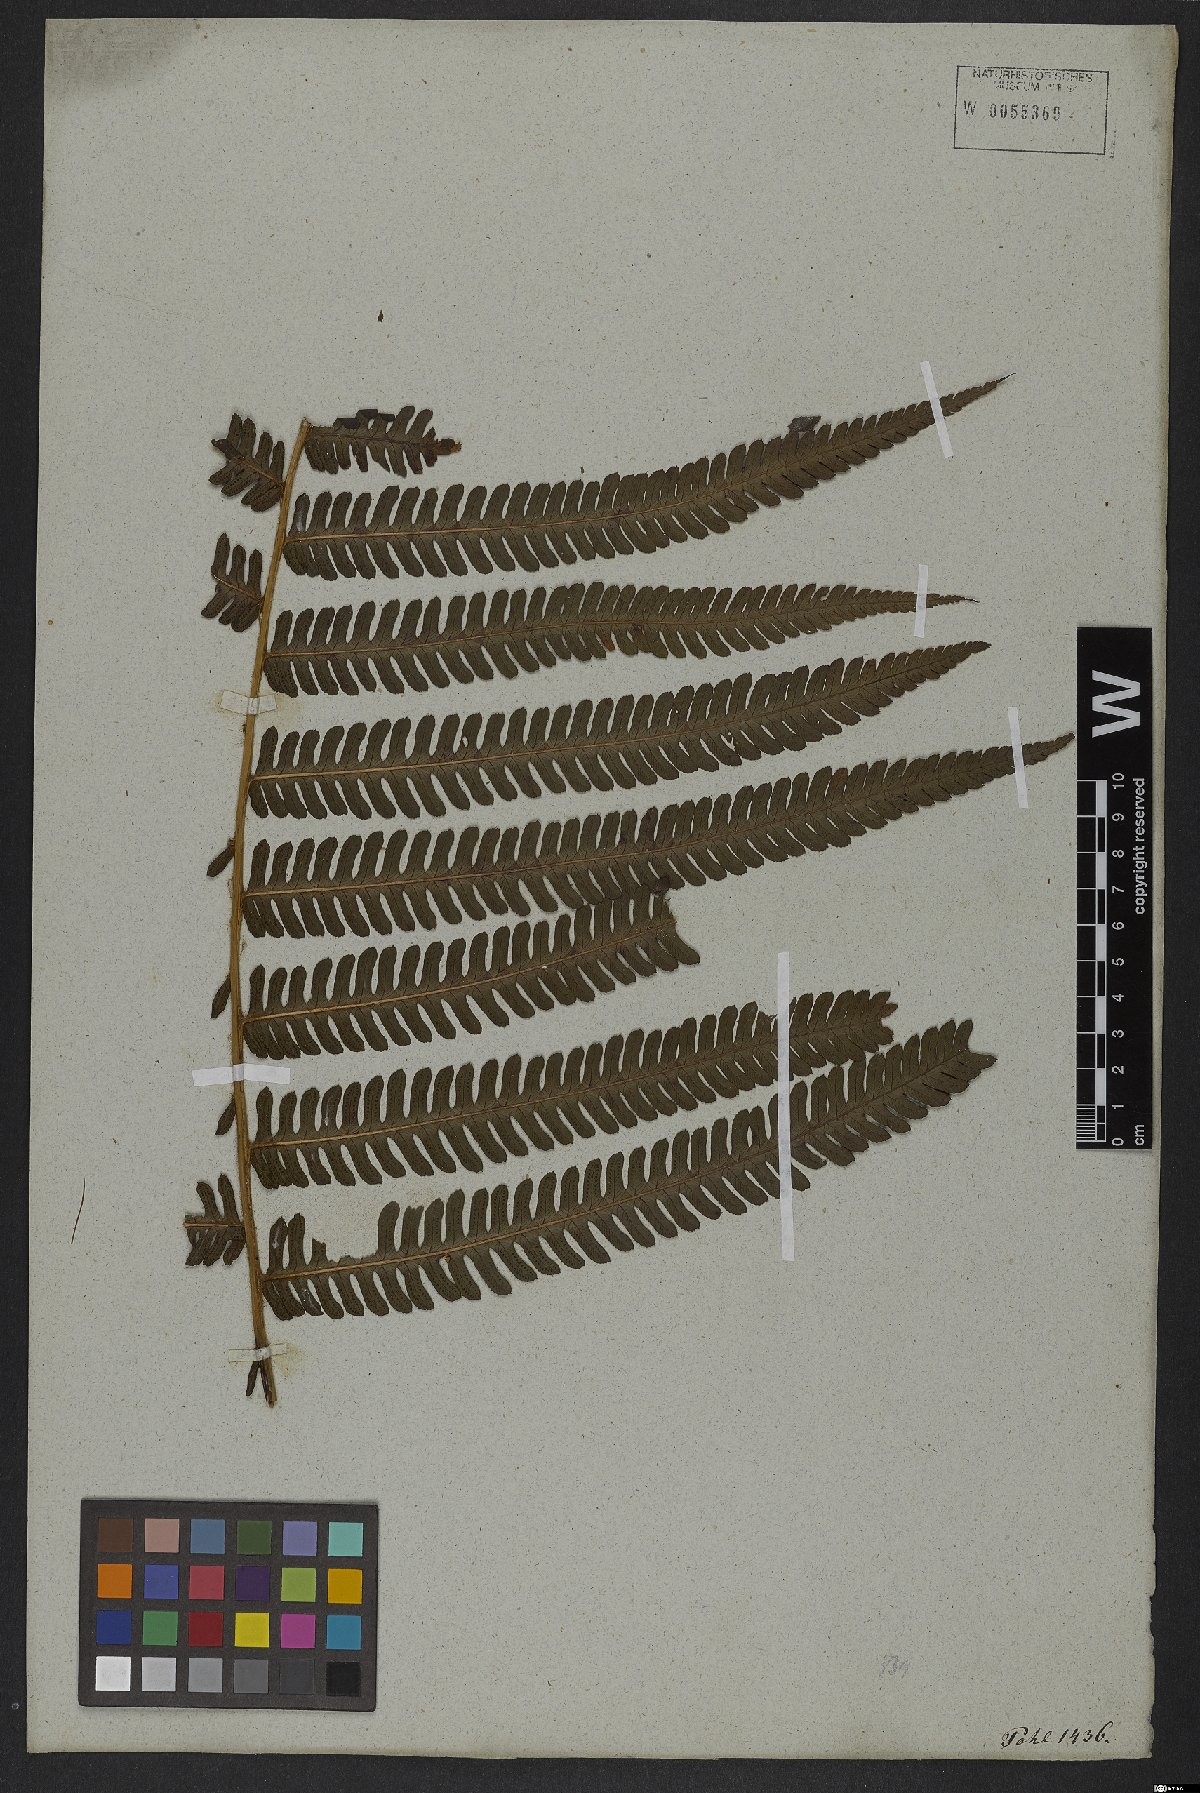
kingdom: Plantae
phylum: Tracheophyta
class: Polypodiopsida
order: Polypodiales
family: Dryopteridaceae
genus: Ctenitis
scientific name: Ctenitis submarginalis
